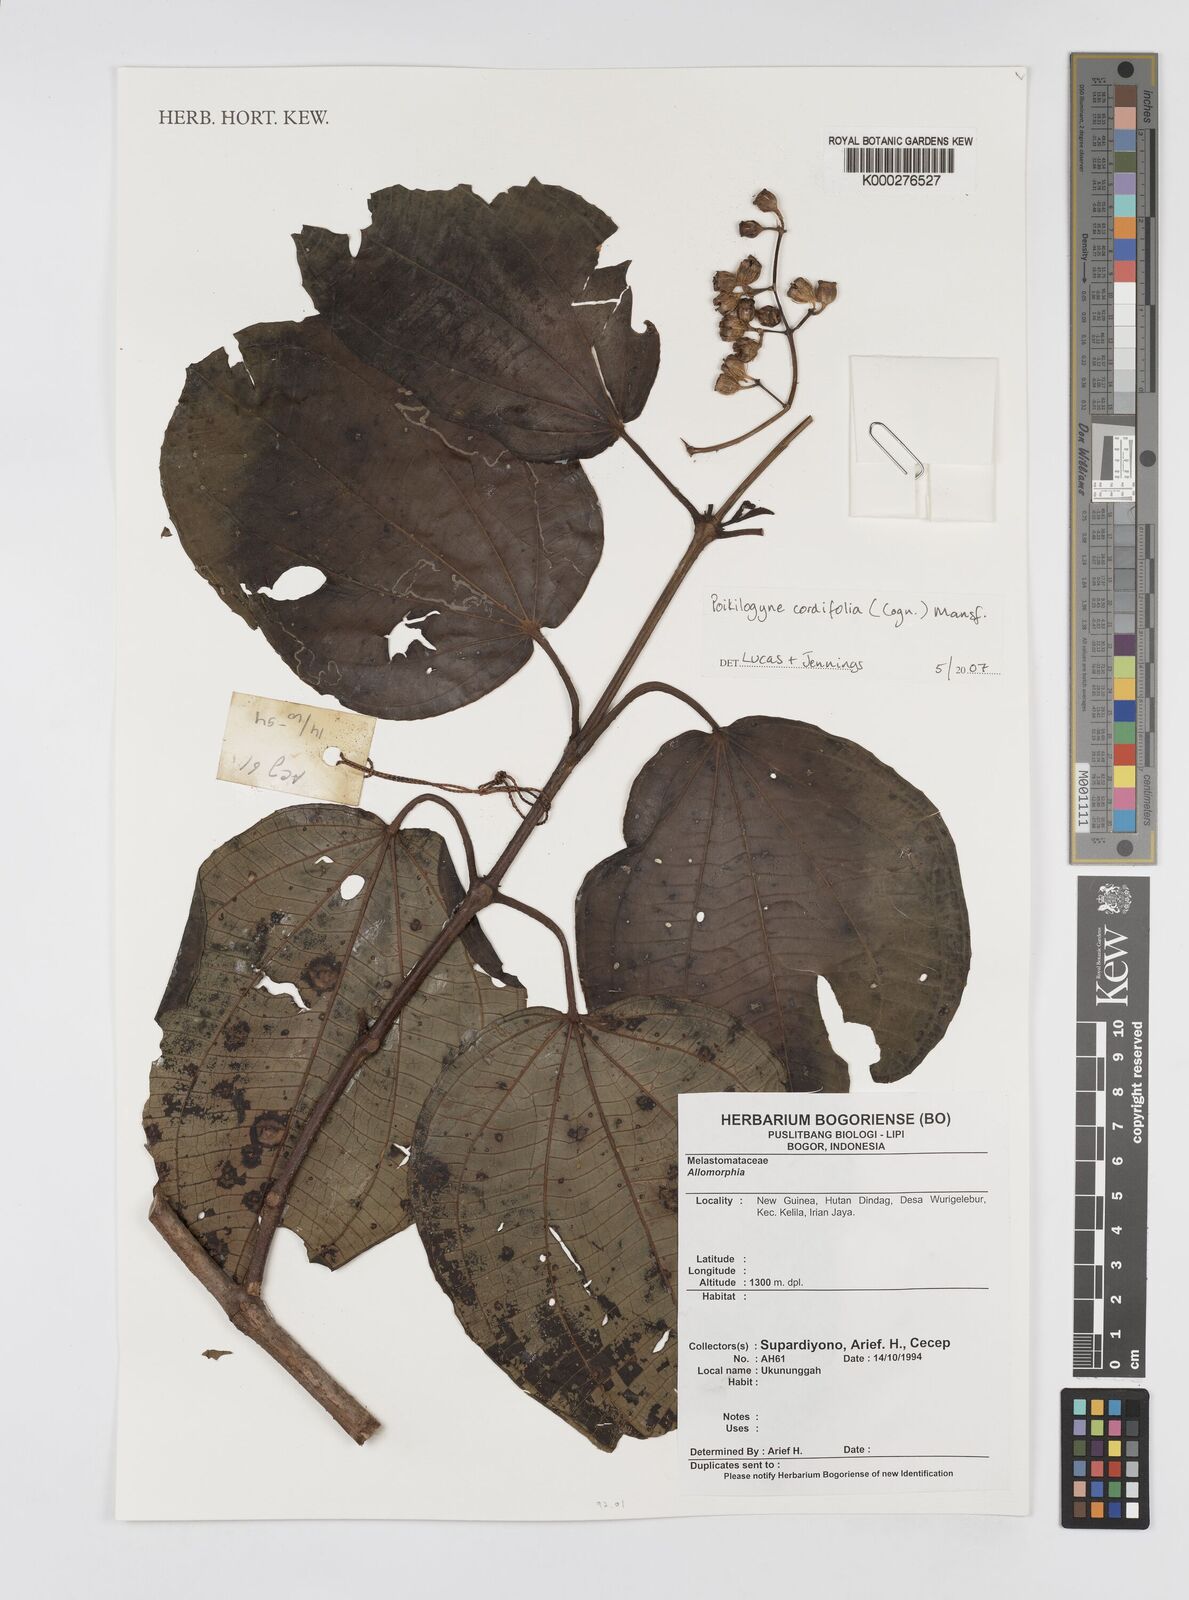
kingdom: Plantae
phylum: Tracheophyta
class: Magnoliopsida
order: Myrtales
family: Melastomataceae
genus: Poikilogyne
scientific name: Poikilogyne cordifolia
